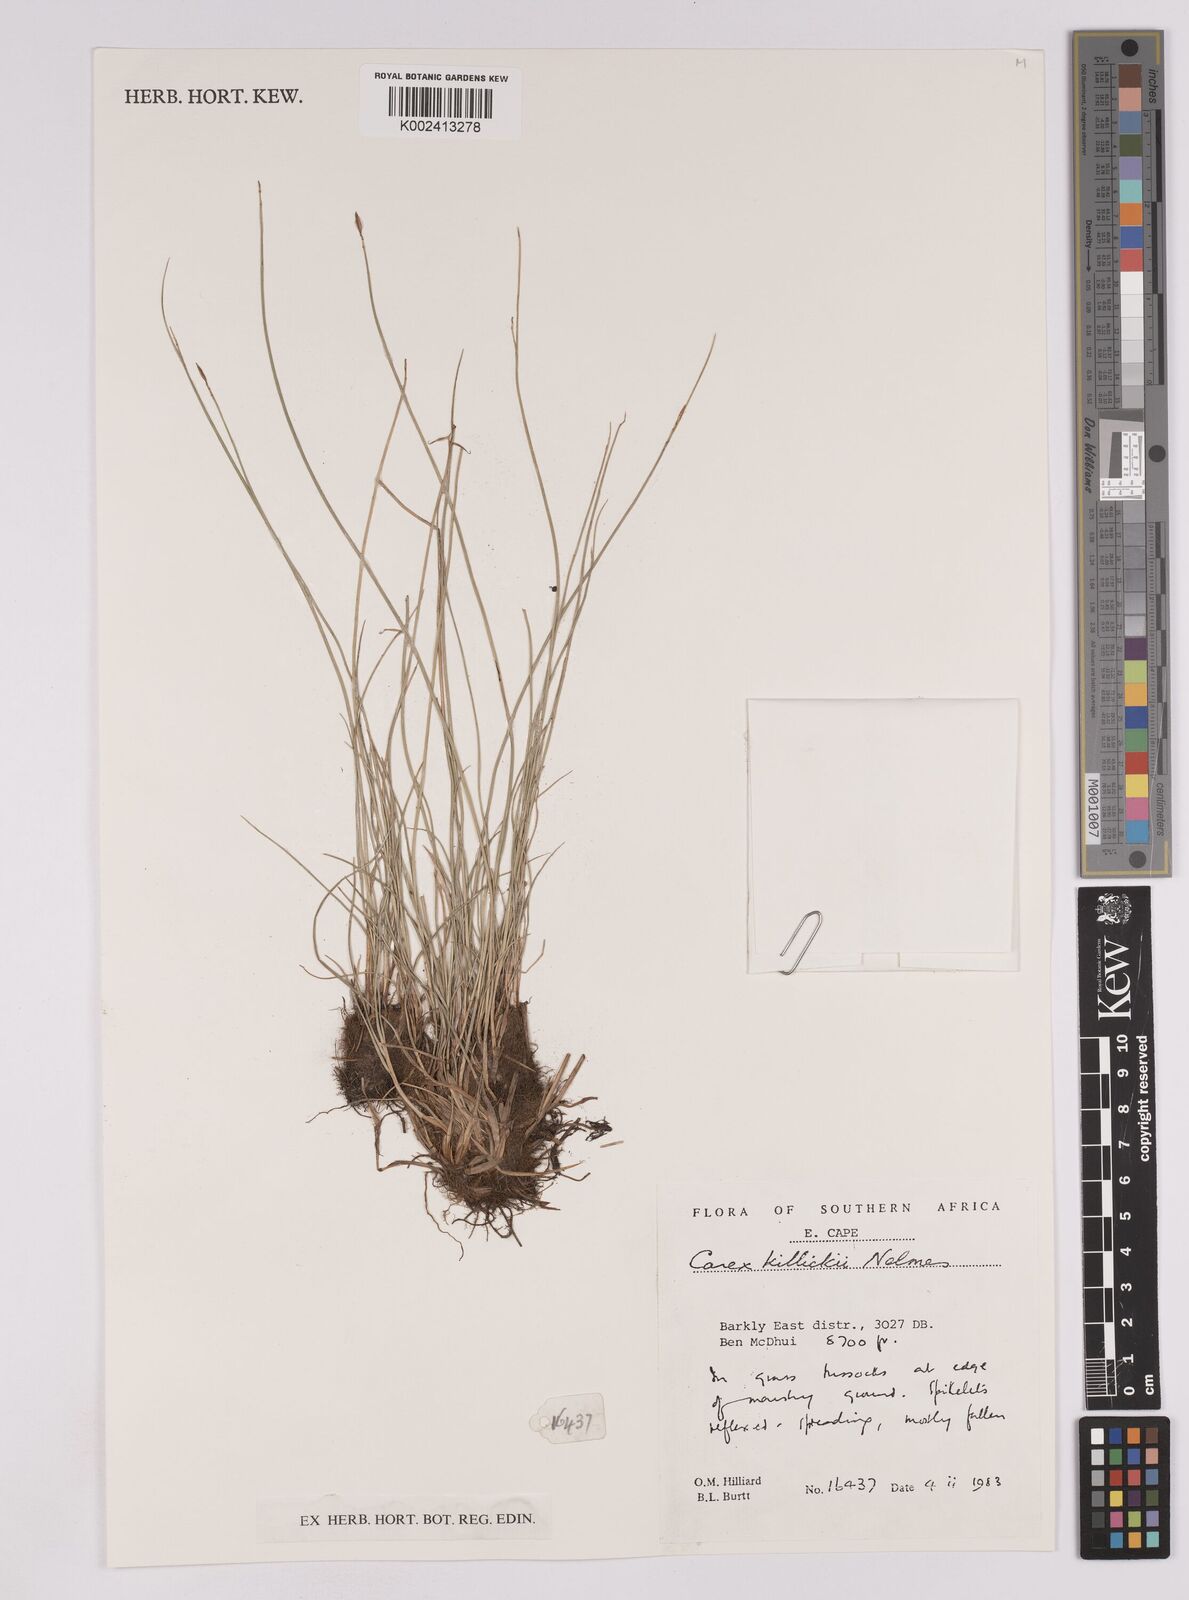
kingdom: Plantae
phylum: Tracheophyta
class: Liliopsida
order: Poales
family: Cyperaceae
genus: Carex
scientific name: Carex
